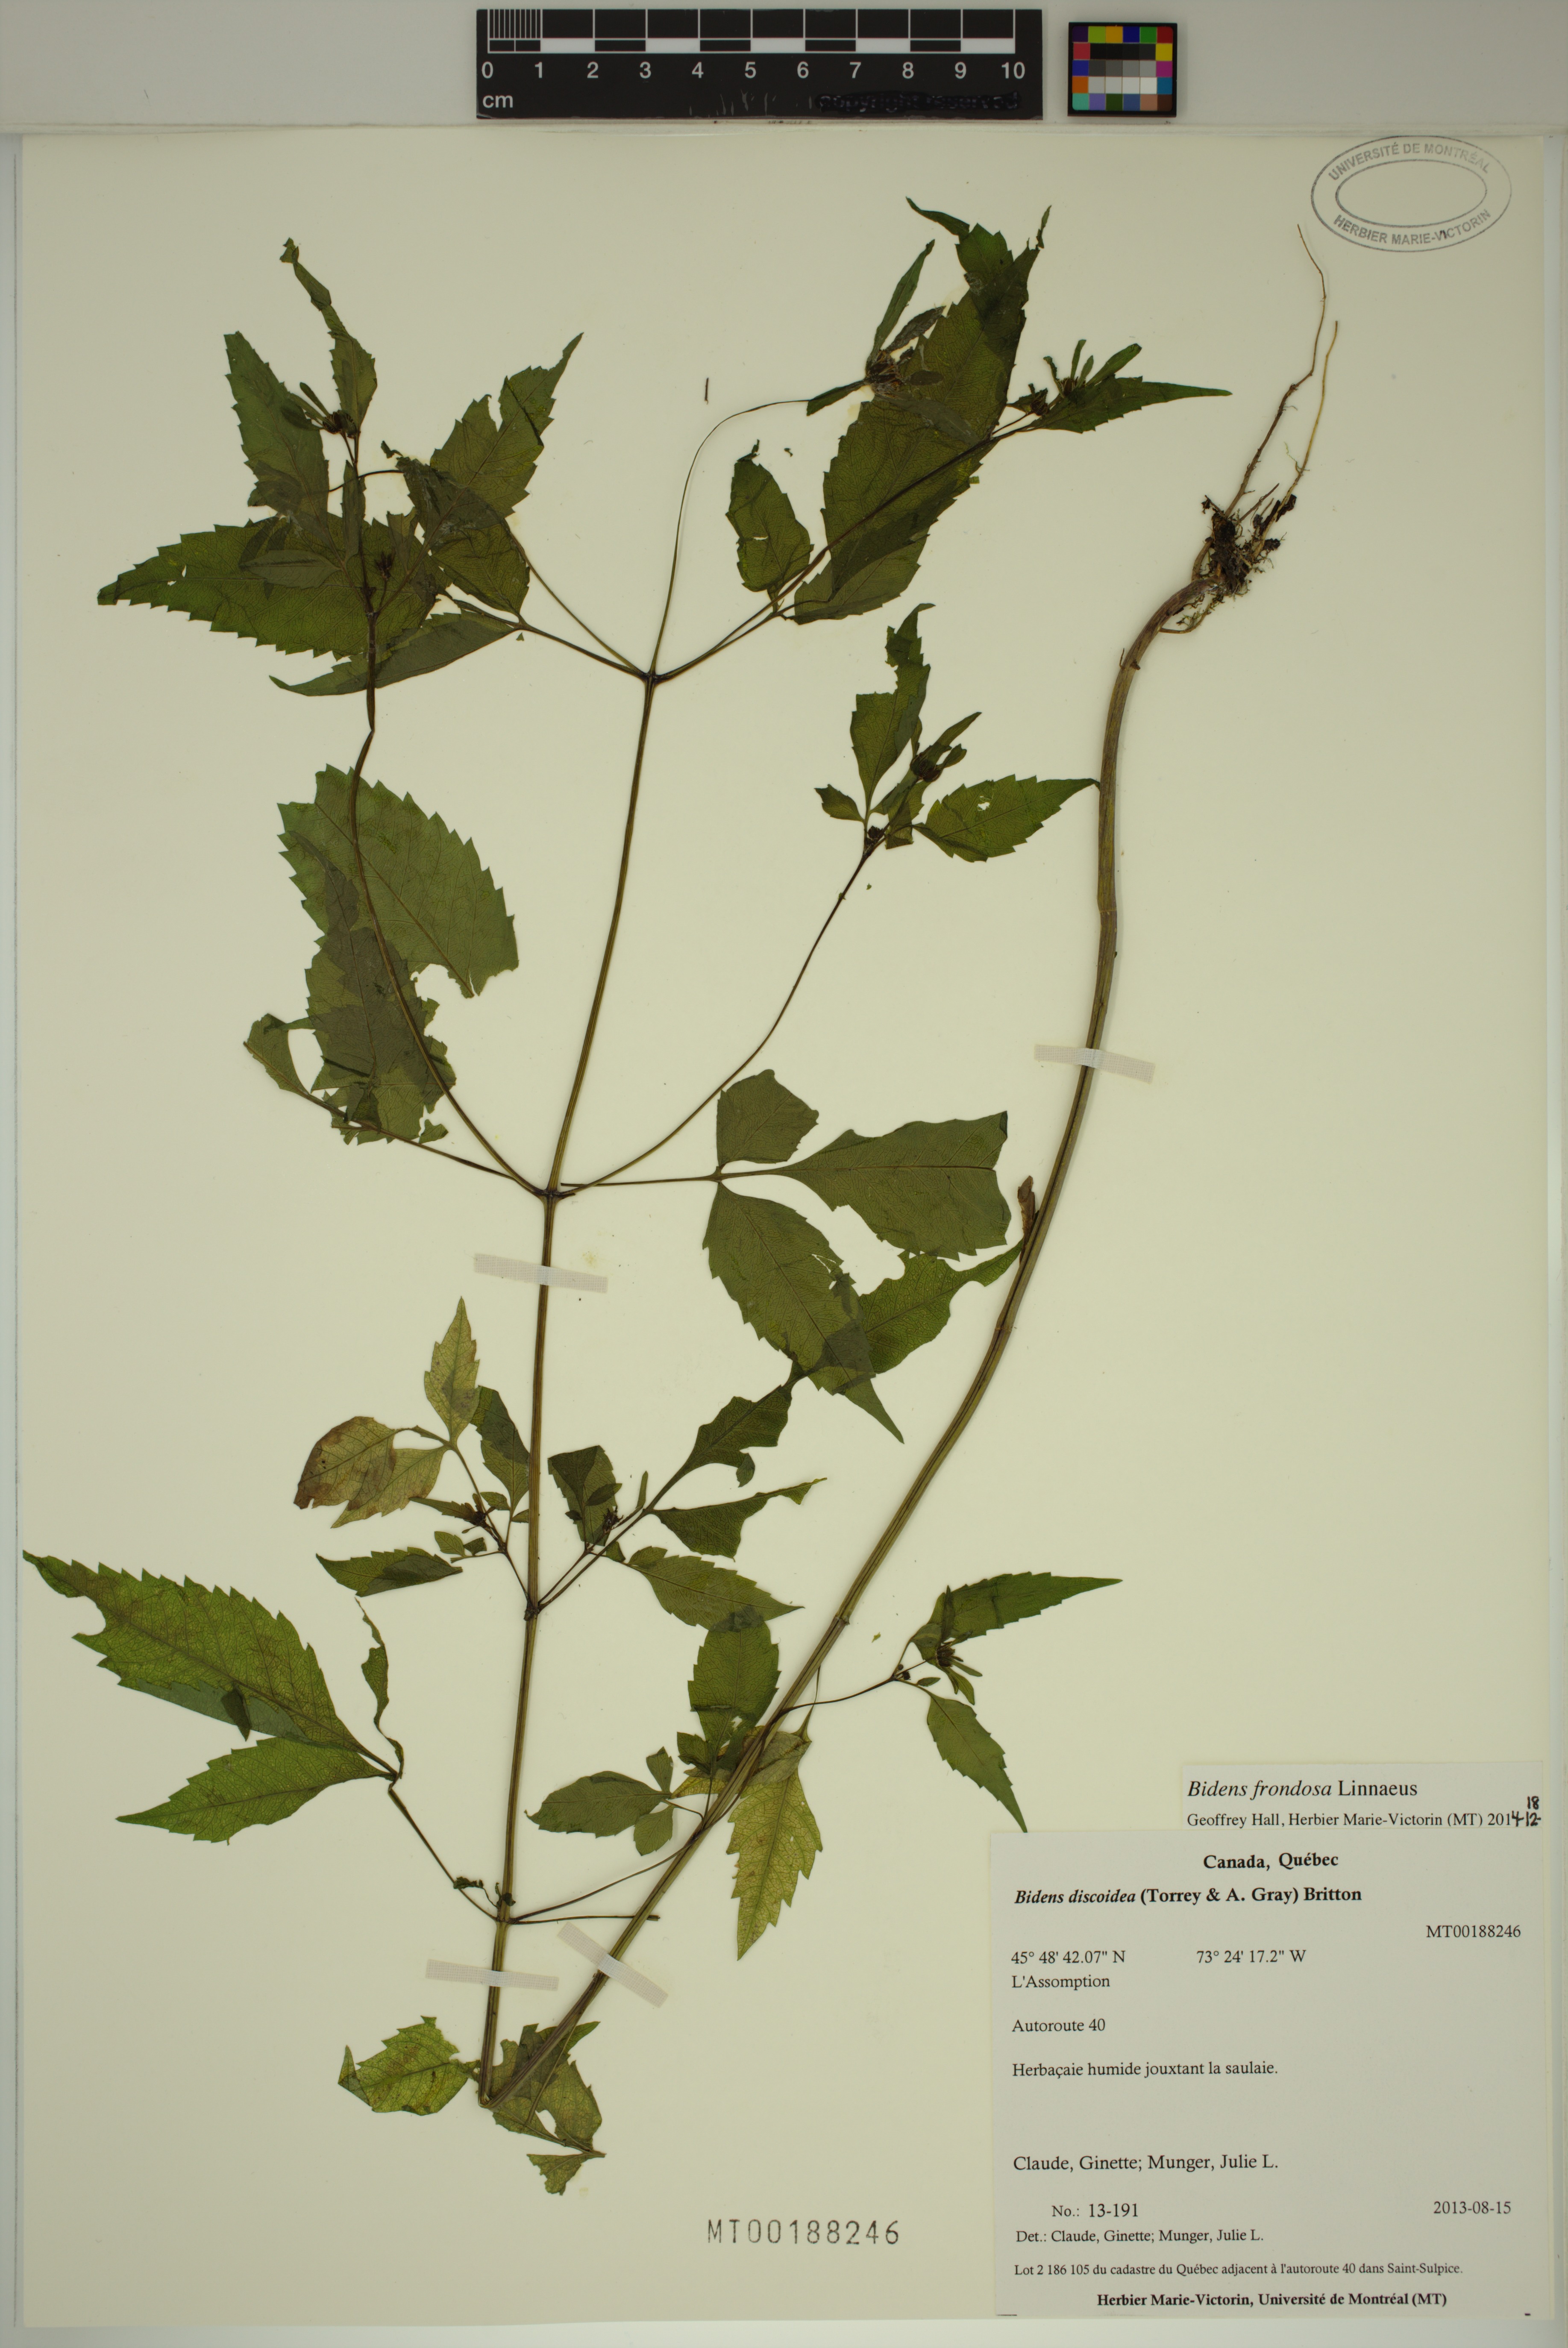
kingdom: Plantae
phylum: Tracheophyta
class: Magnoliopsida
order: Asterales
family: Asteraceae
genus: Bidens
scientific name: Bidens frondosa
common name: Beggarticks
